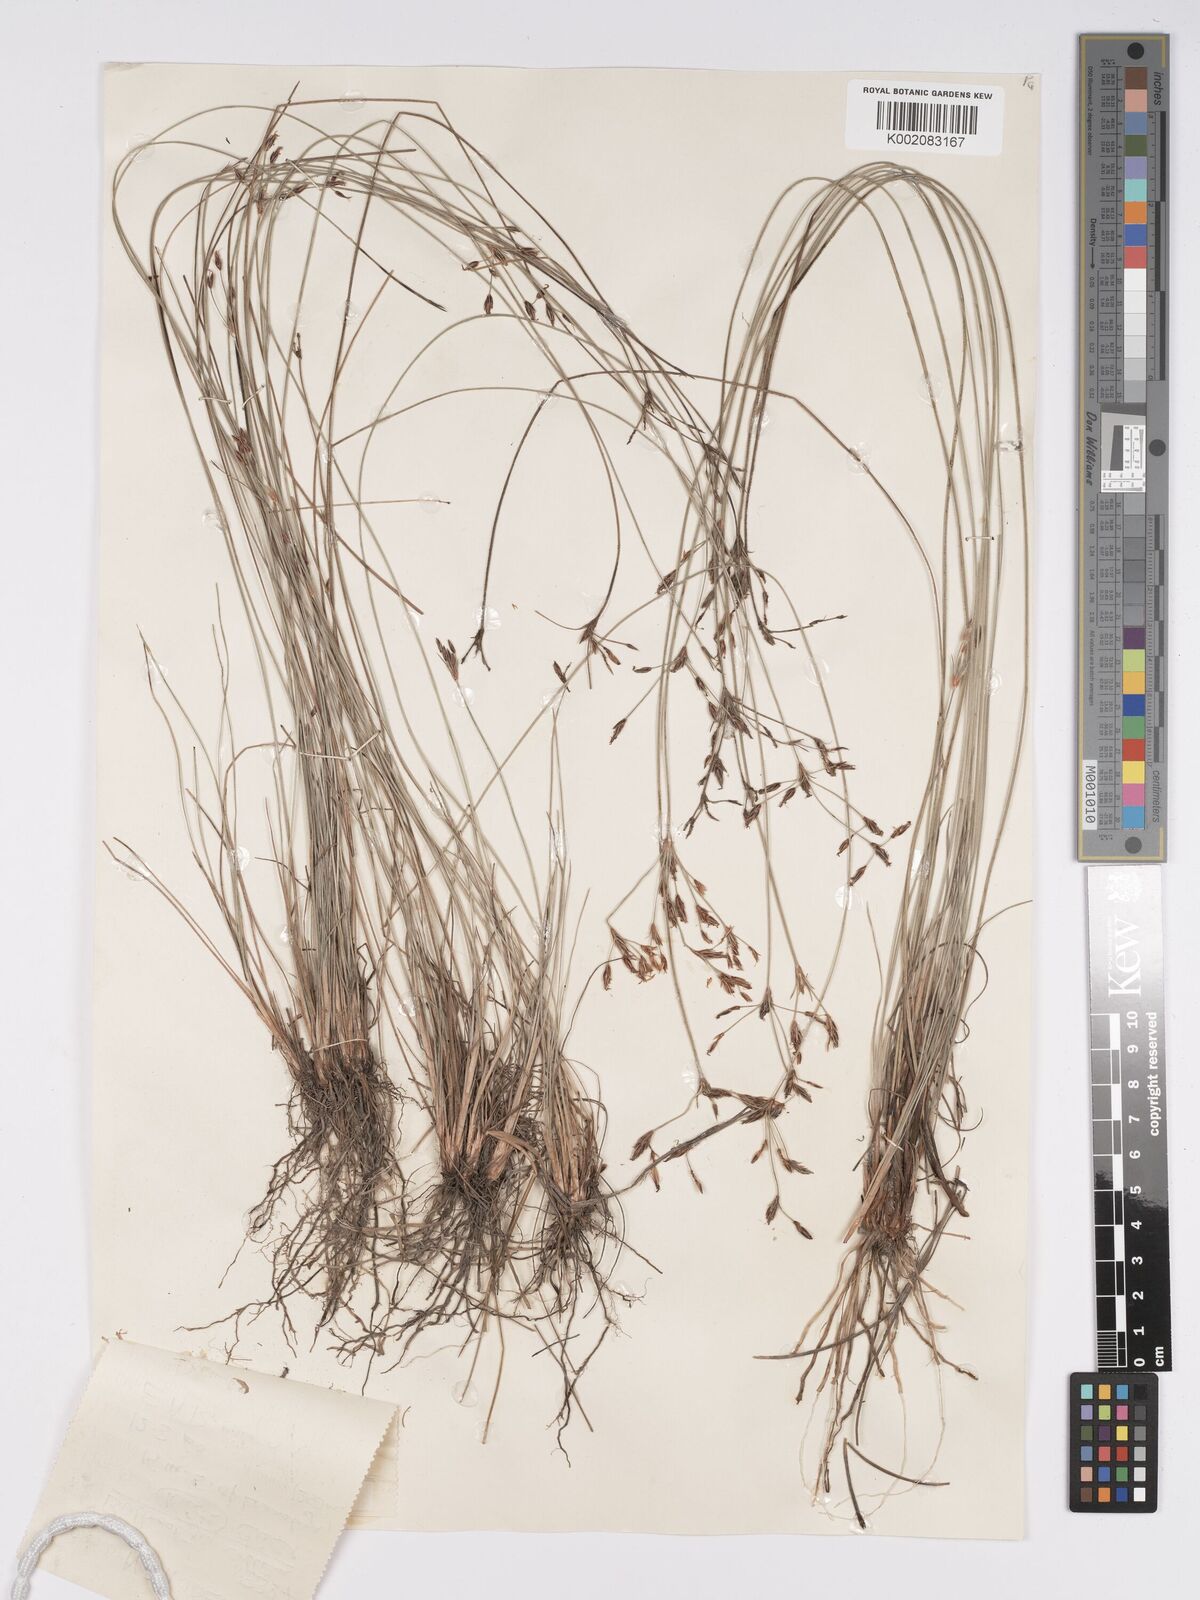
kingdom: Plantae
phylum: Tracheophyta
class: Liliopsida
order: Poales
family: Cyperaceae
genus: Bulbostylis
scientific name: Bulbostylis contexta
